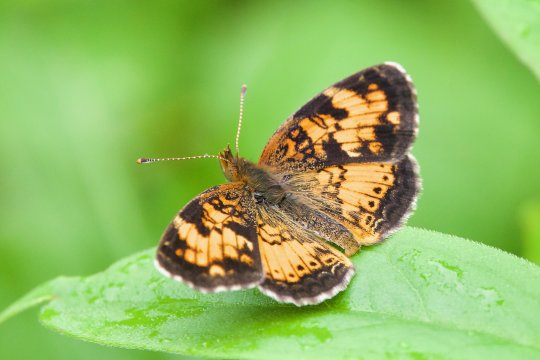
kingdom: Animalia
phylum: Arthropoda
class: Insecta
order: Lepidoptera
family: Nymphalidae
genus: Phyciodes
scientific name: Phyciodes tharos
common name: Northern Crescent
